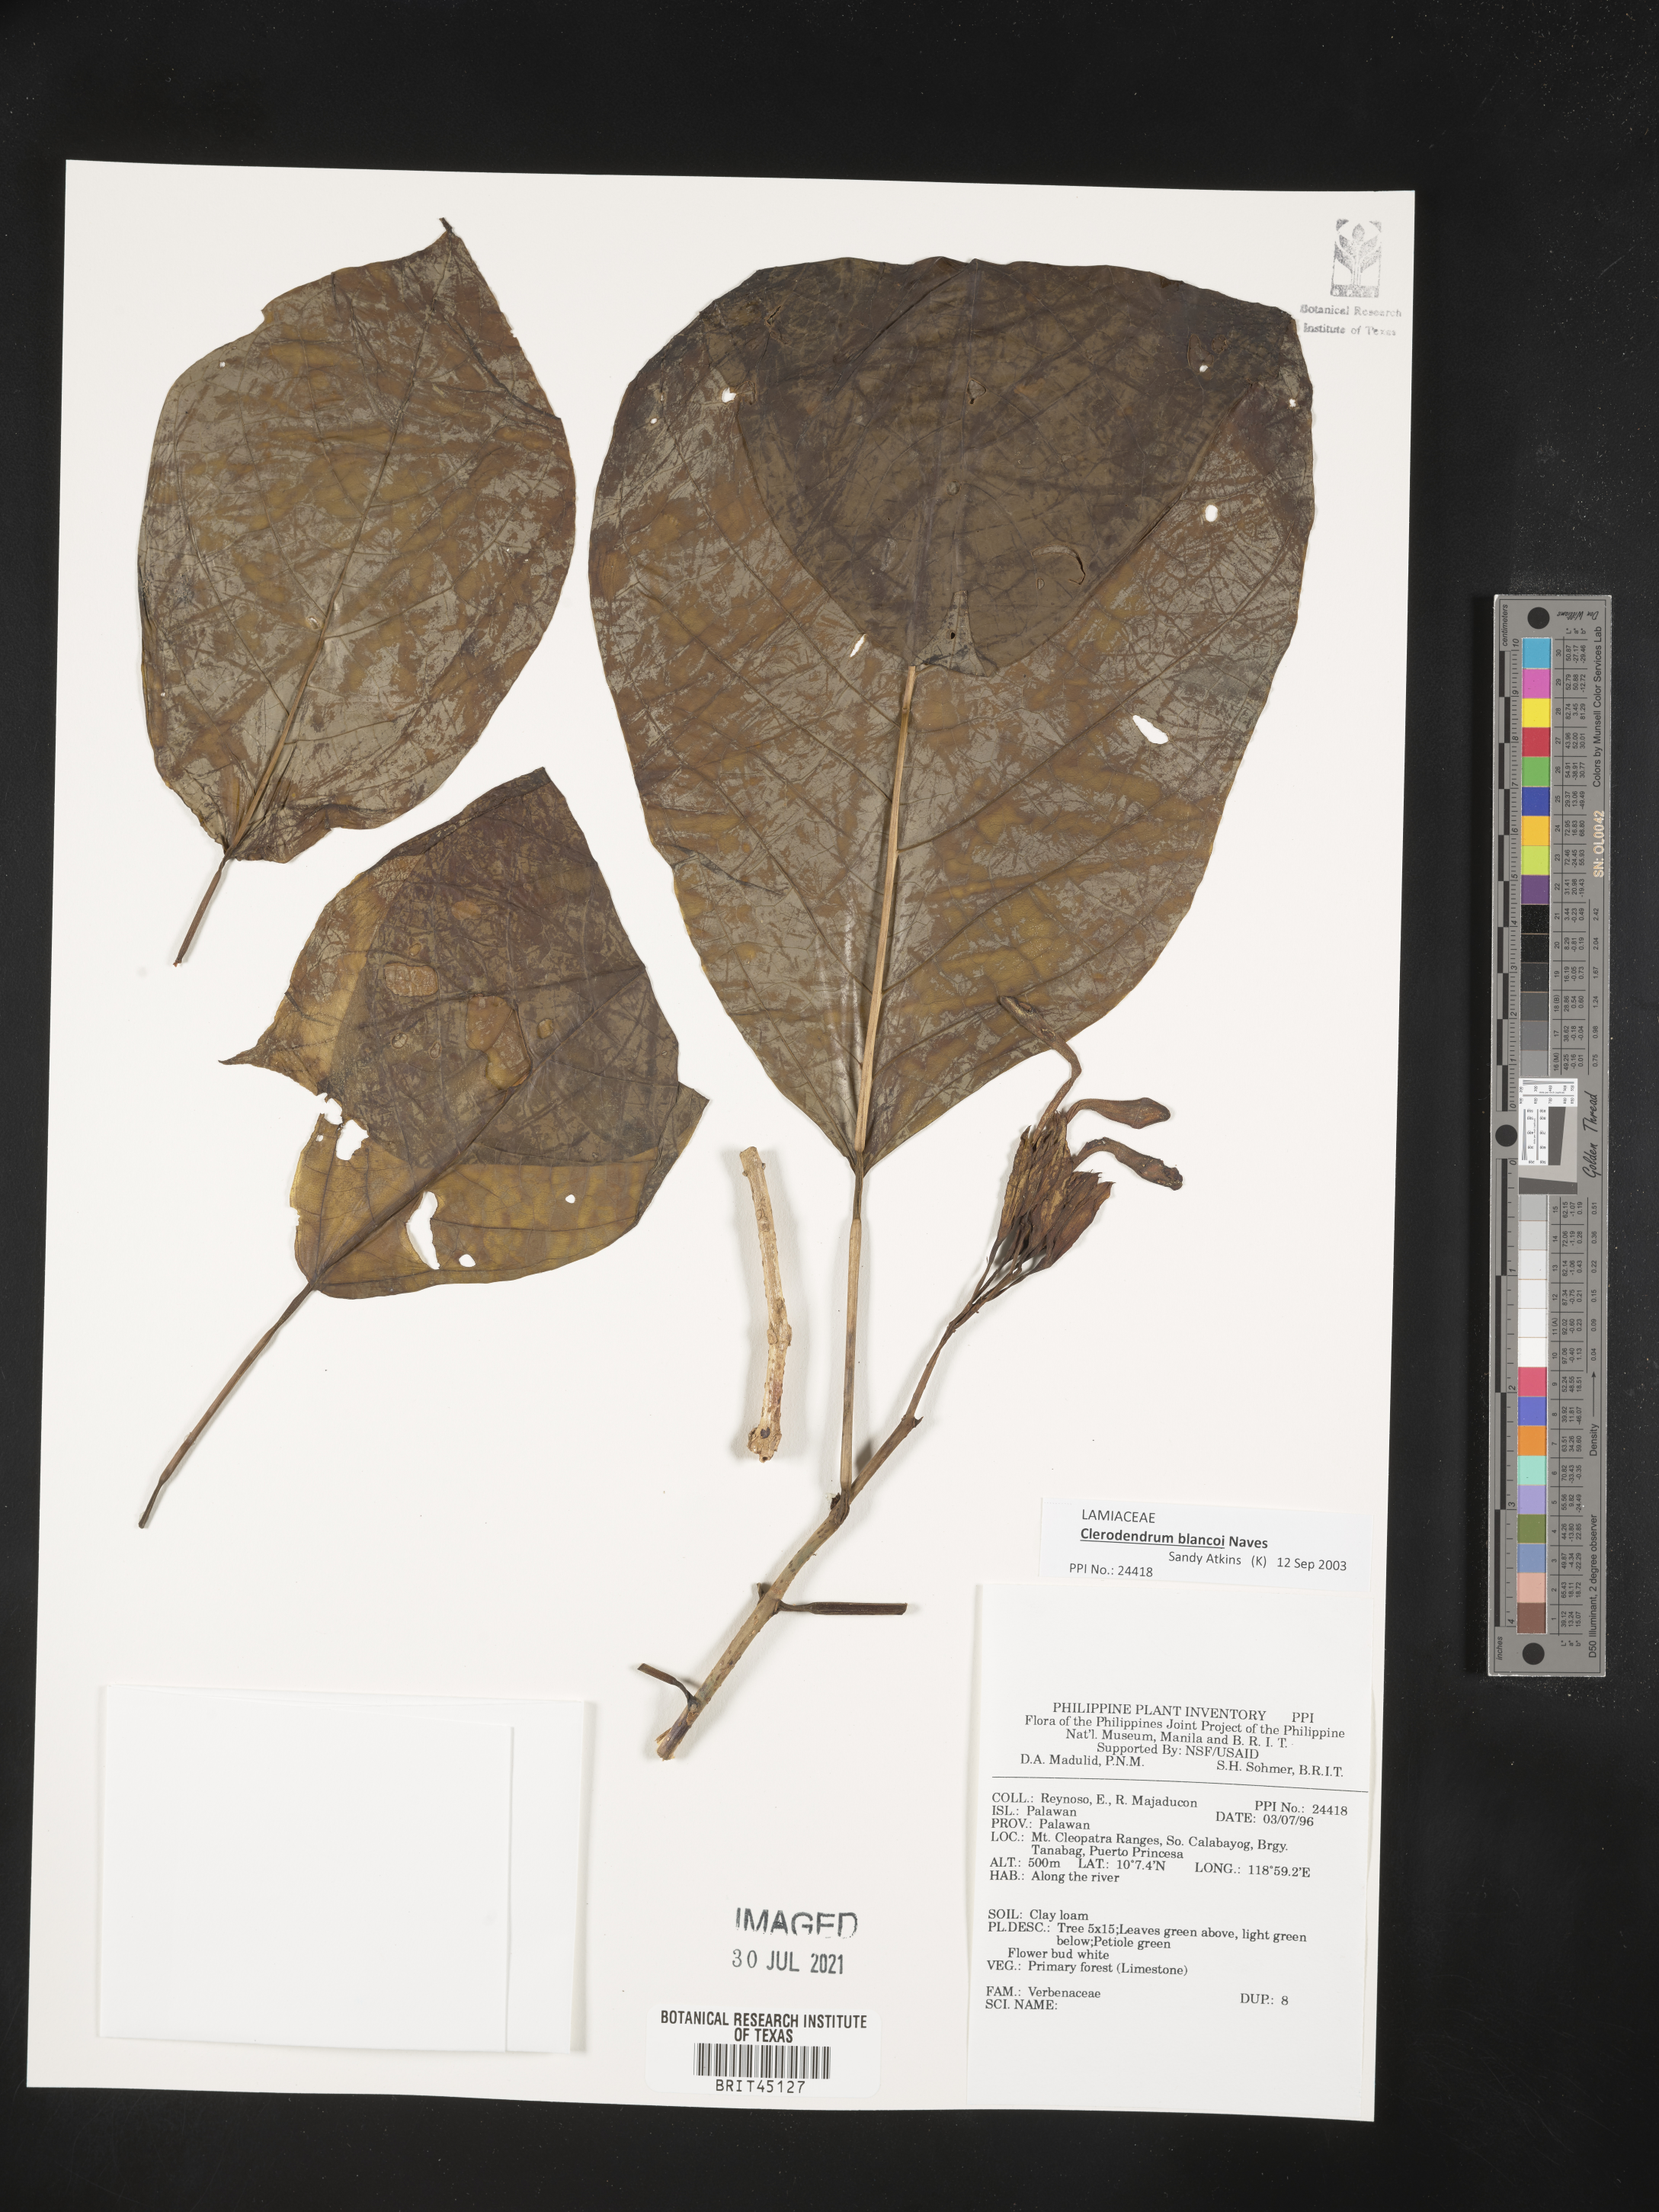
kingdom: Plantae
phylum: Tracheophyta
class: Magnoliopsida
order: Lamiales
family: Verbenaceae
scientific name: Verbenaceae
